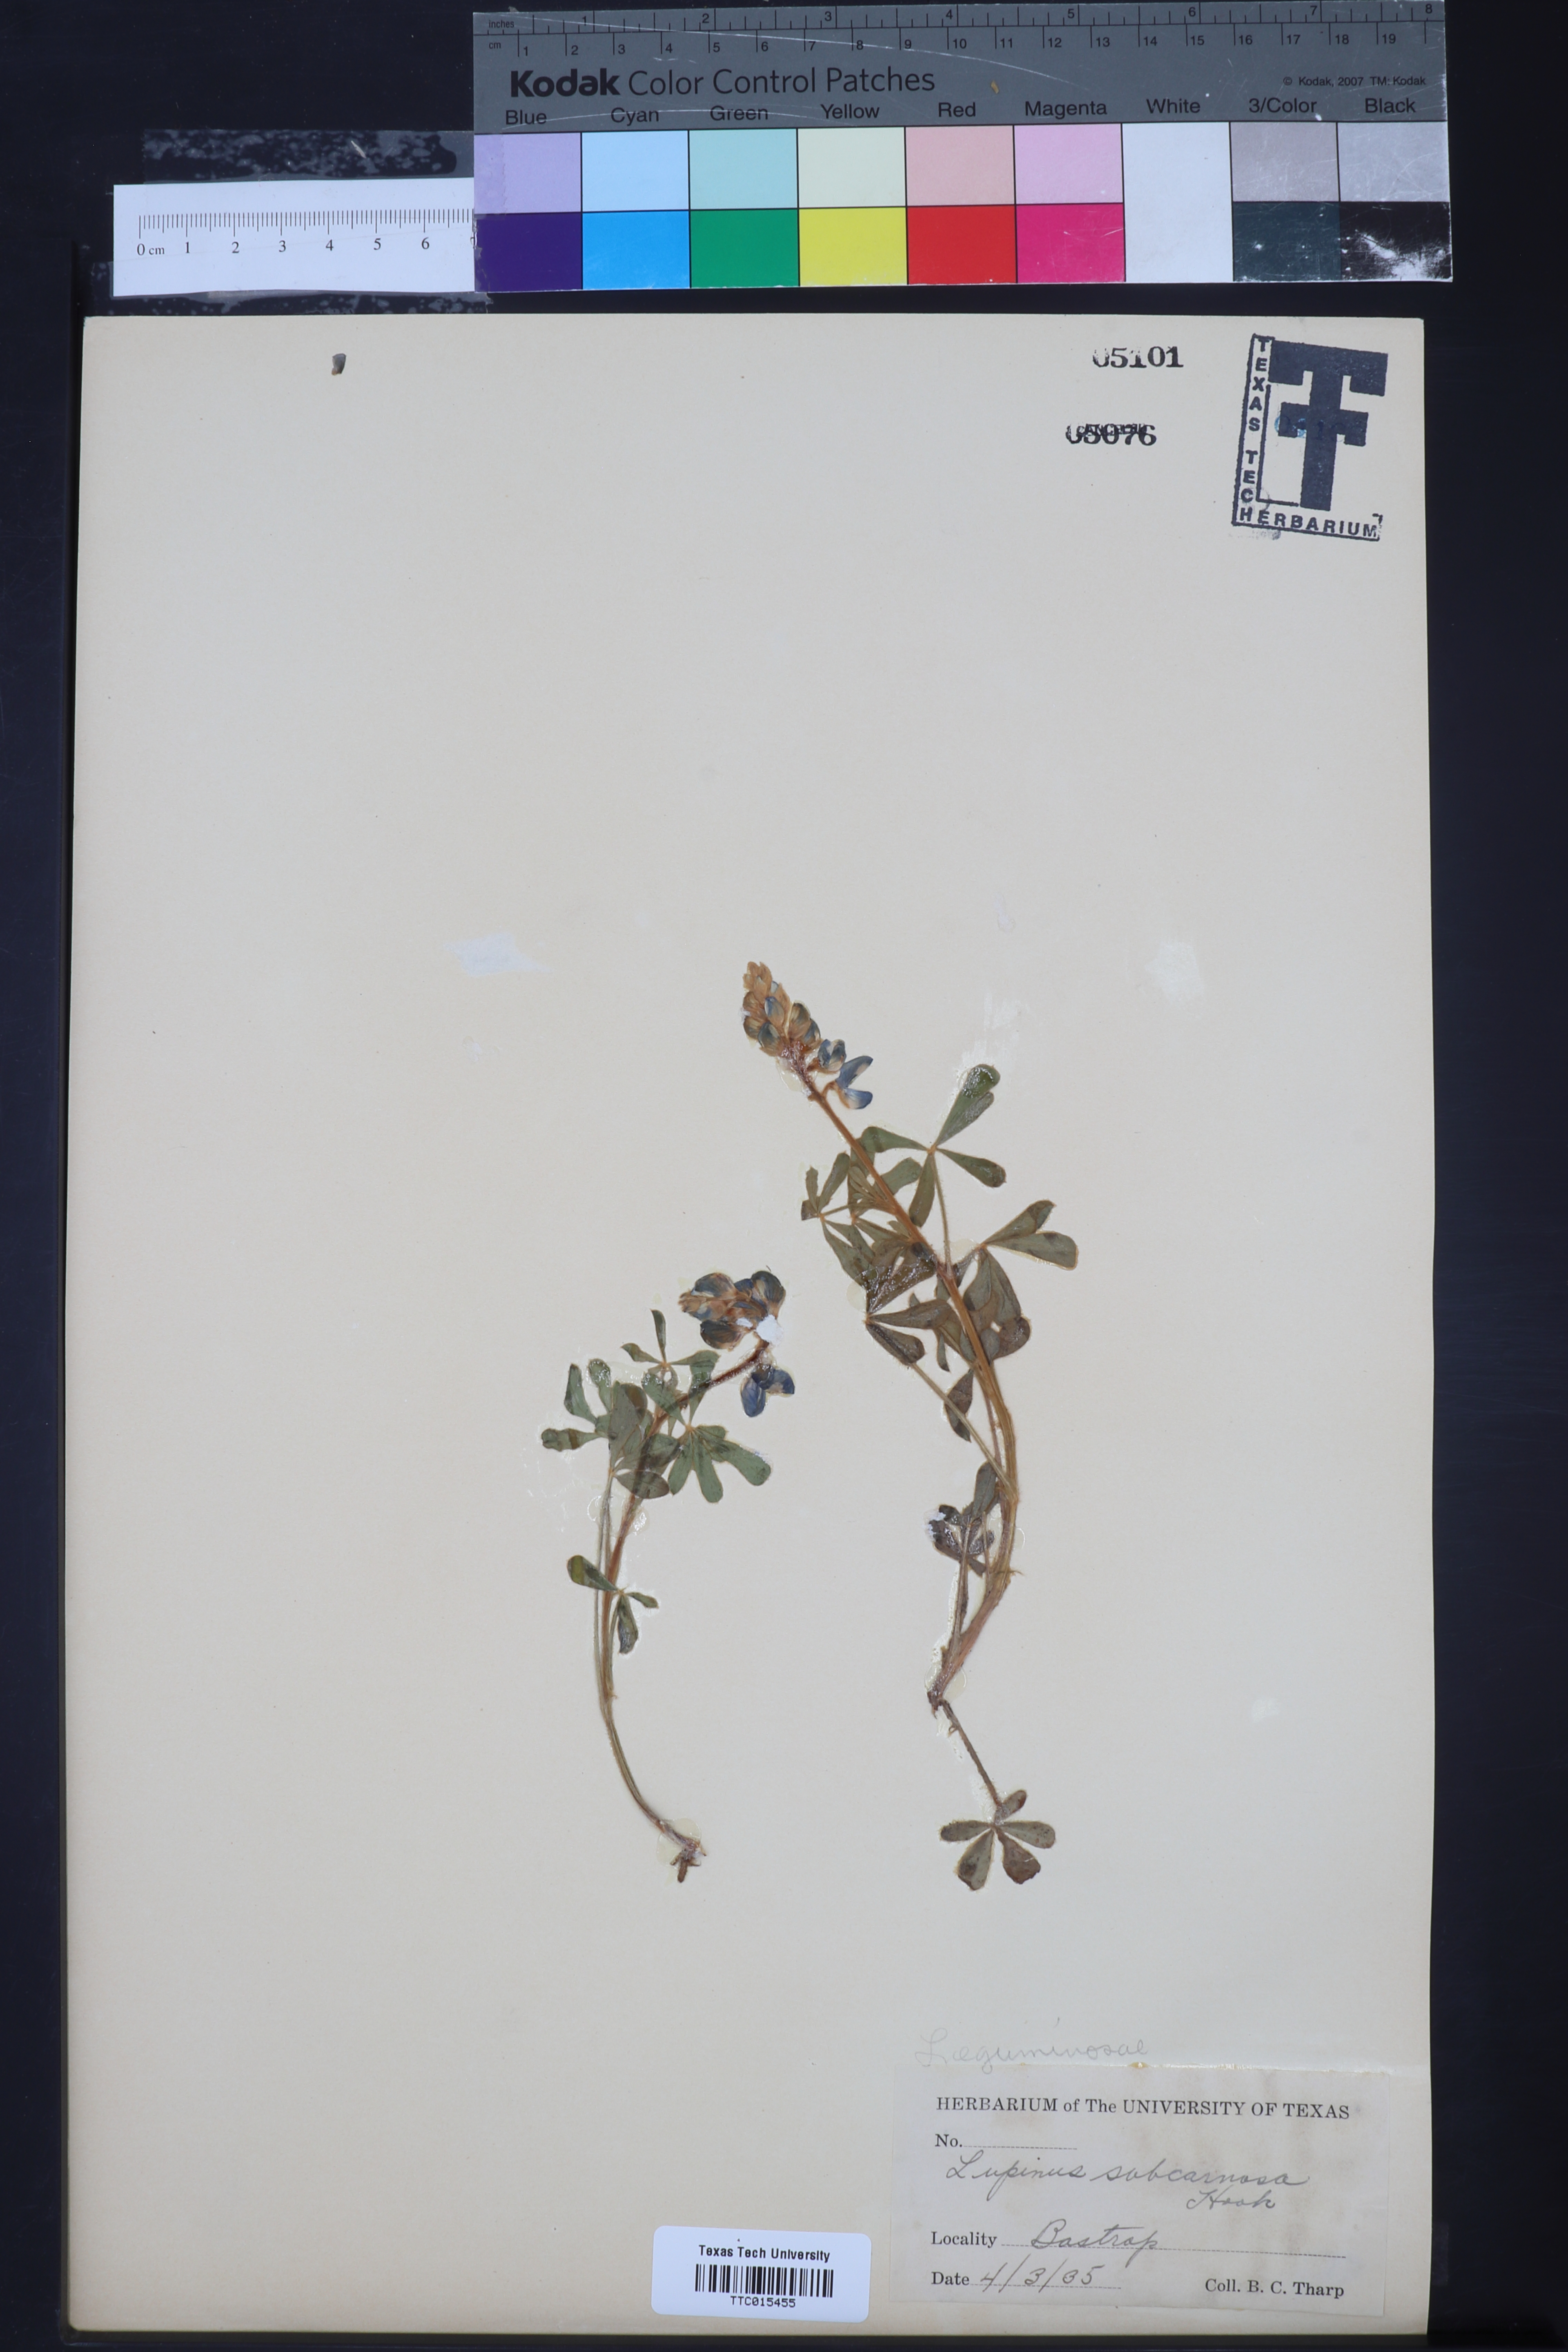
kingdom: Plantae
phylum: Tracheophyta
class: Magnoliopsida
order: Fabales
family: Fabaceae
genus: Lupinus
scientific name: Lupinus subcarnosus
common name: Texas bluebonnet
